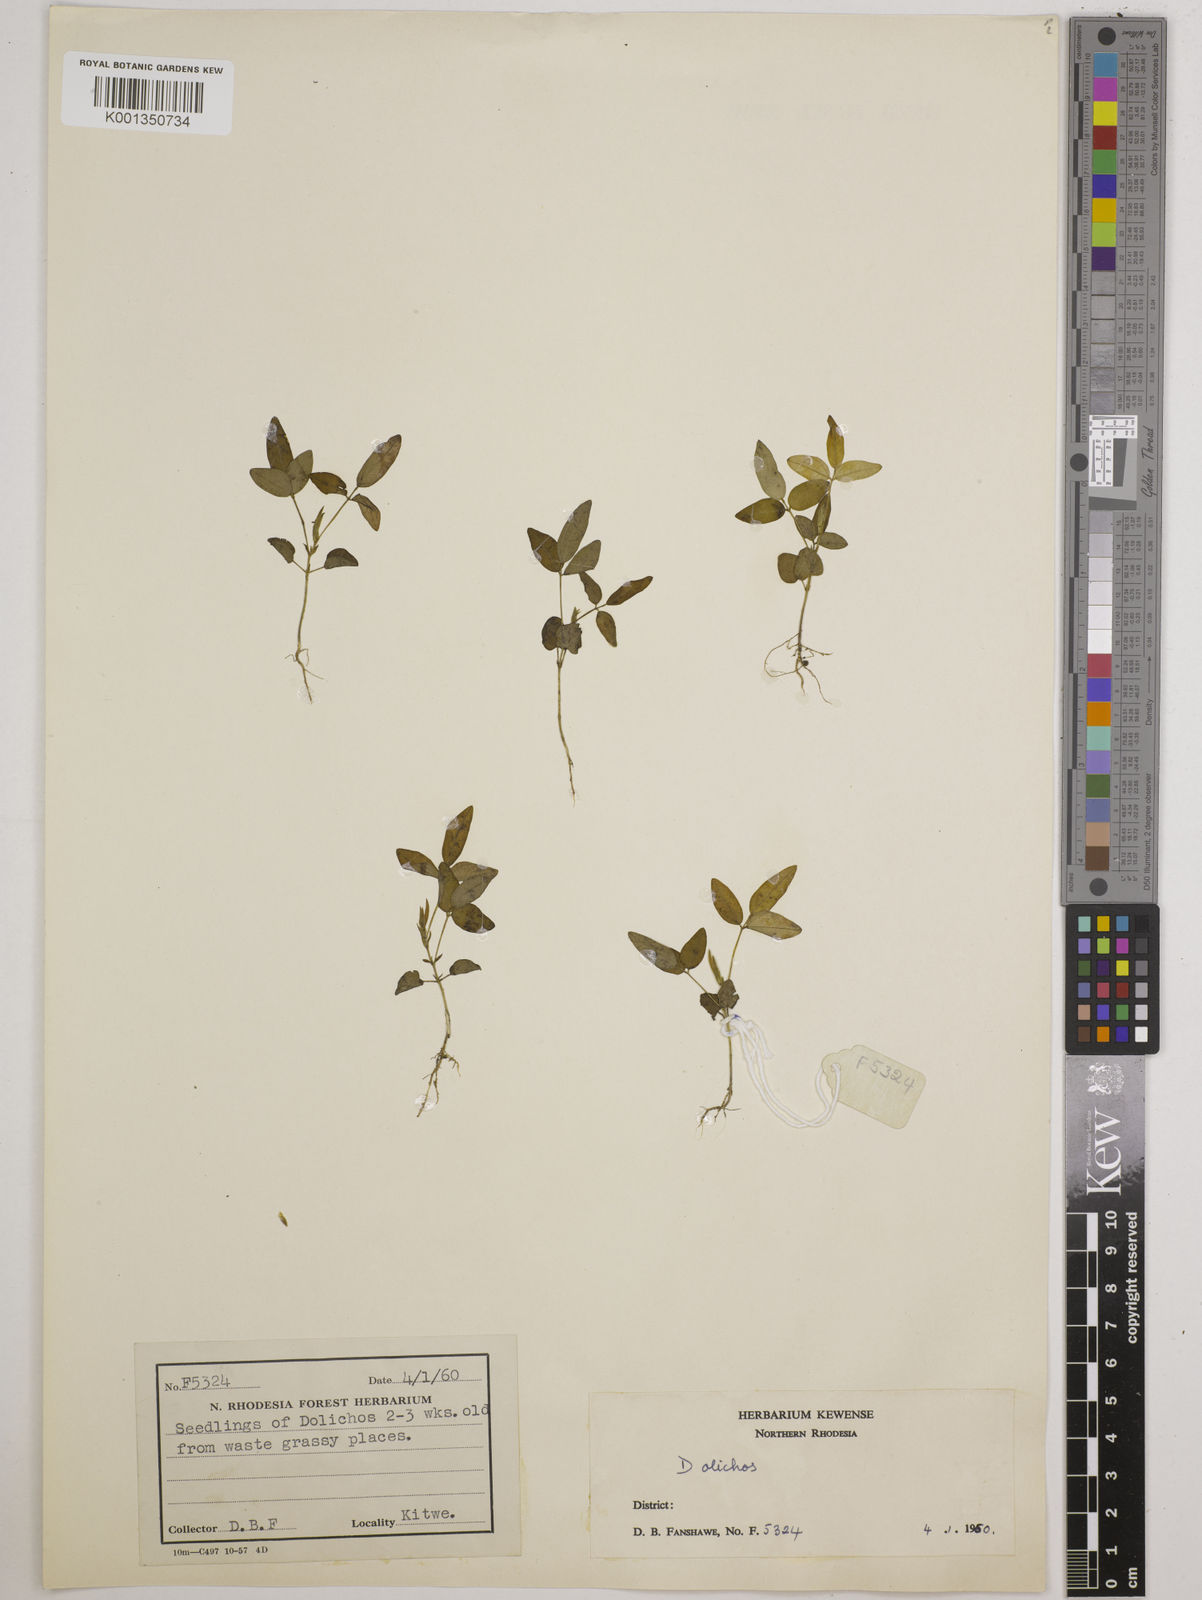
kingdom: Plantae
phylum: Tracheophyta
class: Magnoliopsida
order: Fabales
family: Fabaceae
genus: Dolichos
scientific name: Dolichos
